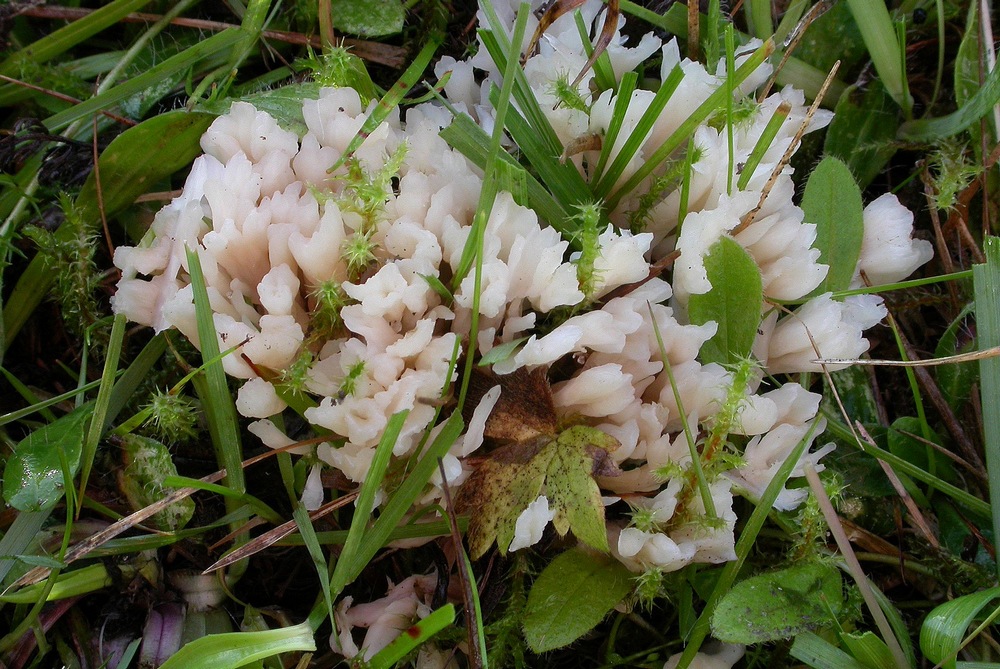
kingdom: Fungi
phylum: Basidiomycota
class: Agaricomycetes
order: Tremellodendropsidales
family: Tremellodendropsidaceae
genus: Tremellodendropsis
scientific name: Tremellodendropsis tuberosa
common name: bævrekølle
